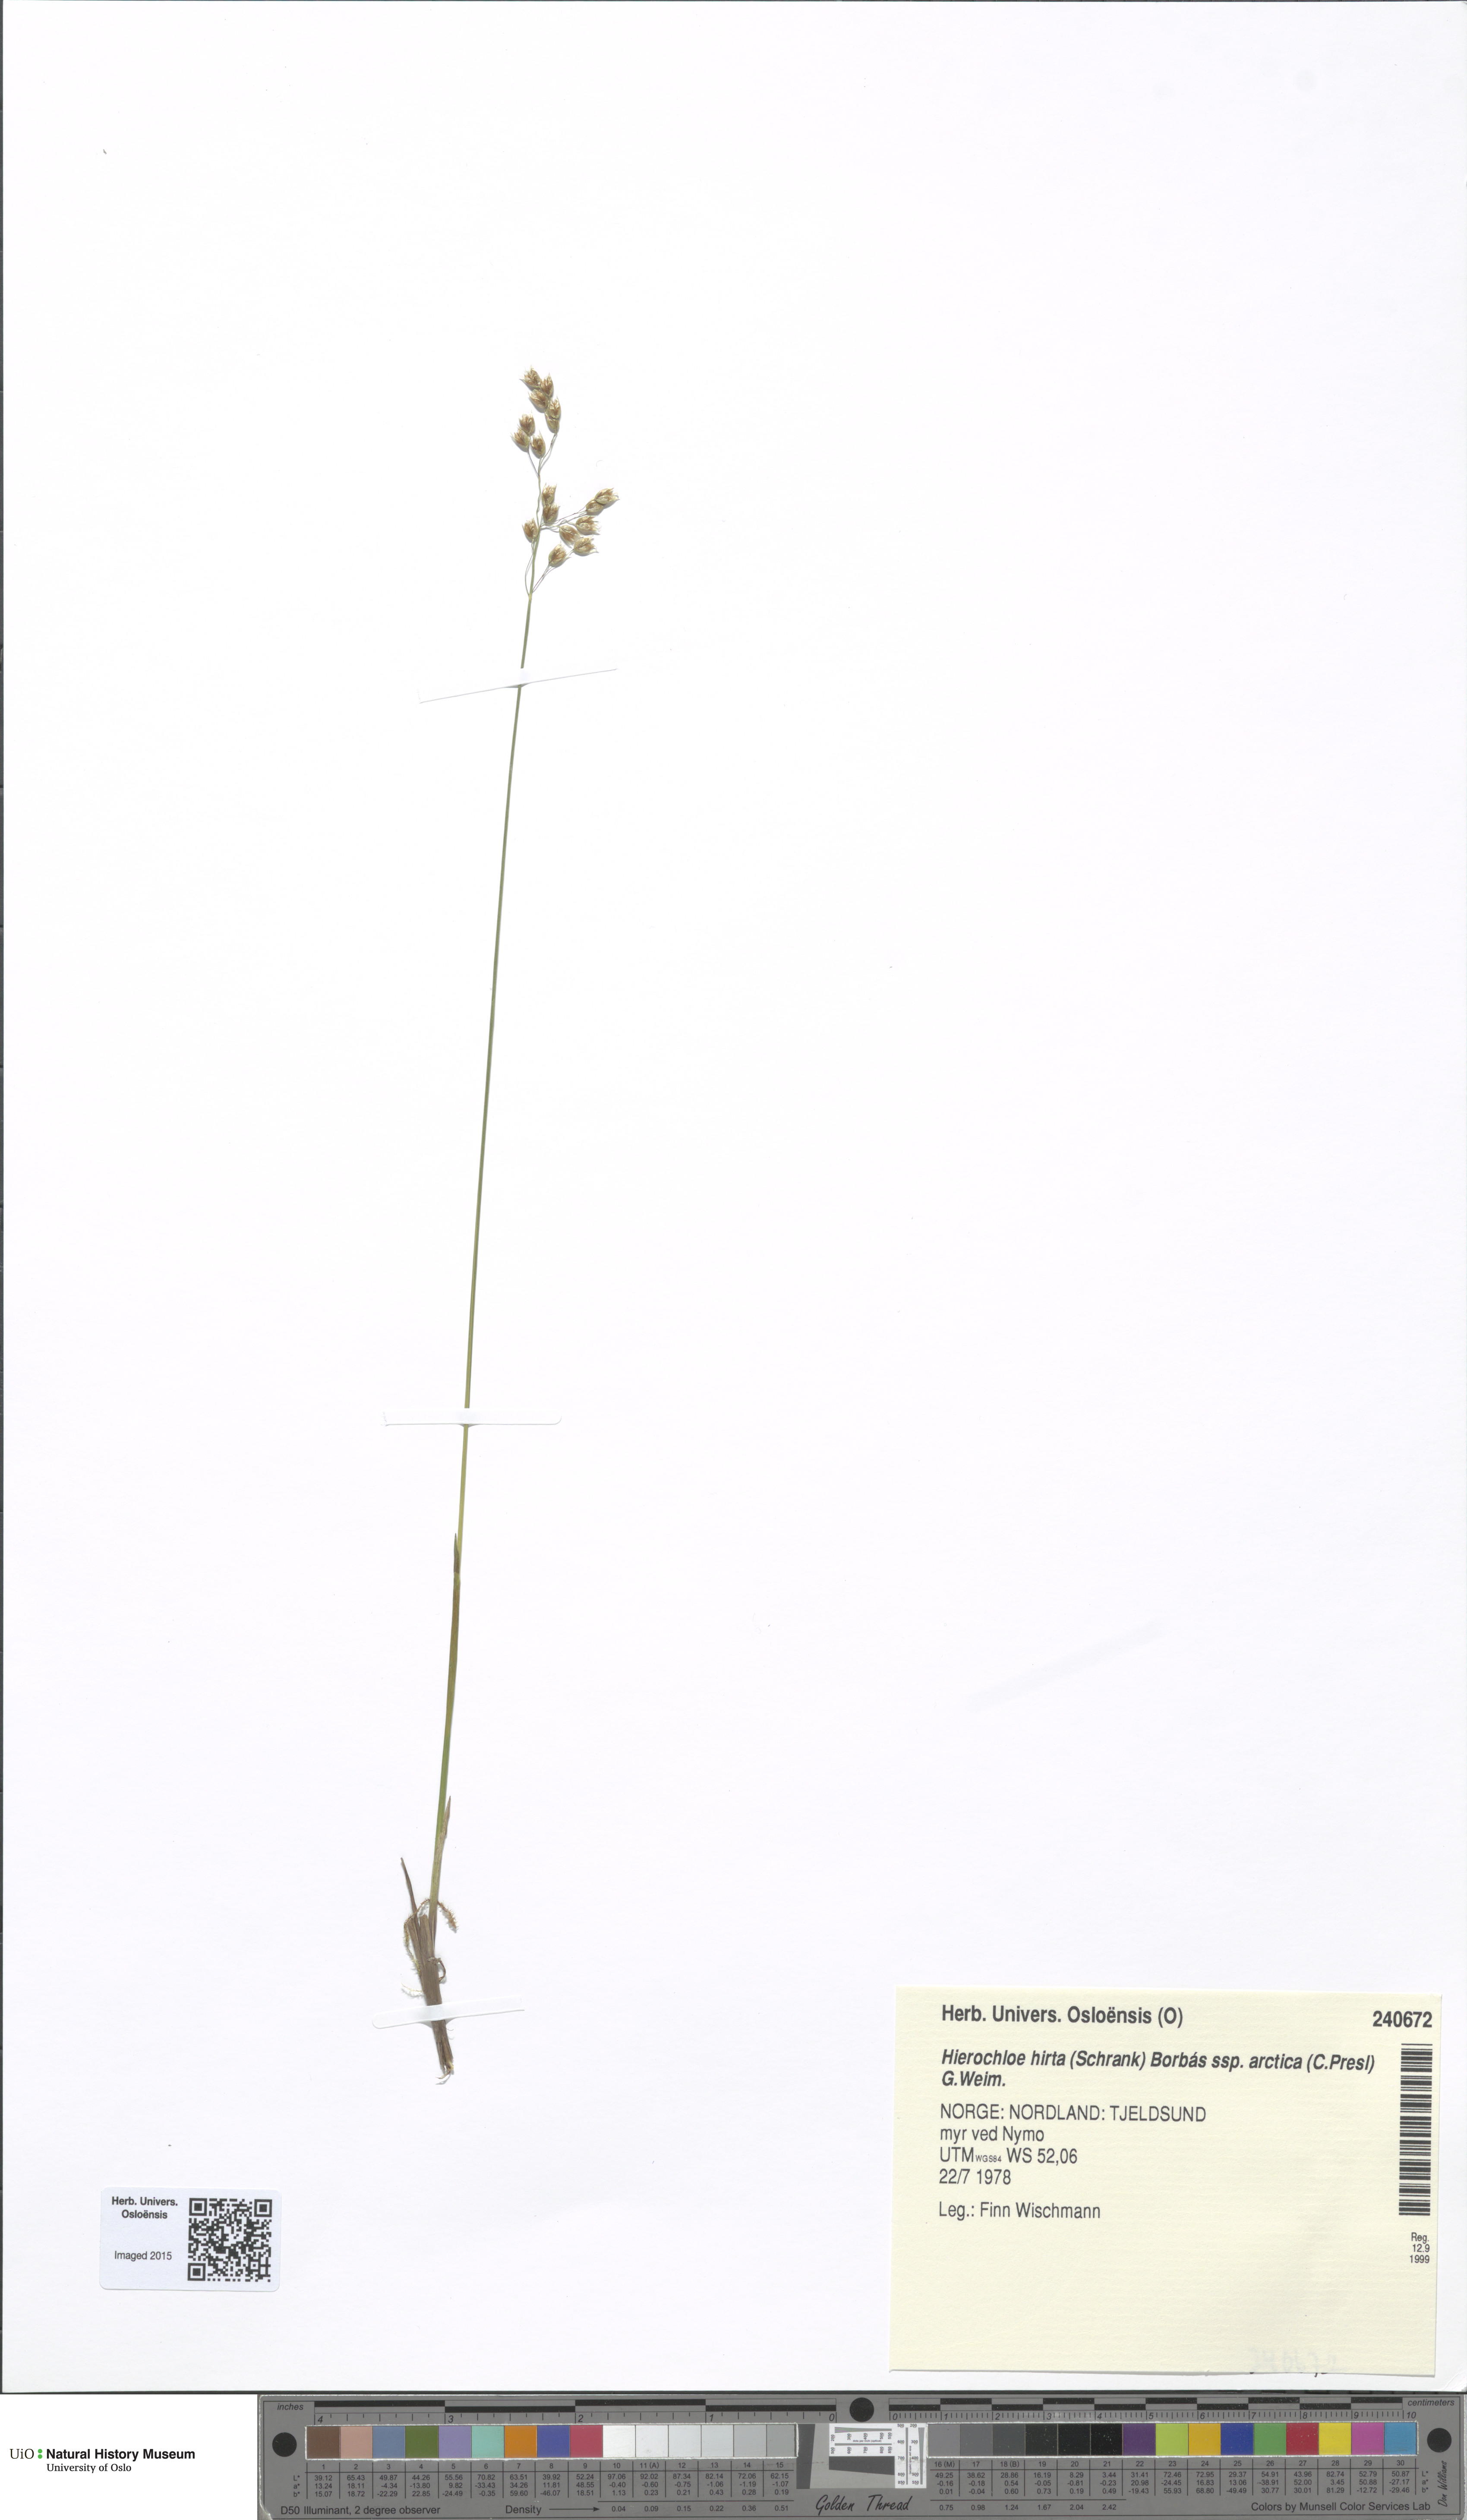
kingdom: Plantae
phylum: Tracheophyta
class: Liliopsida
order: Poales
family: Poaceae
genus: Anthoxanthum
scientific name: Anthoxanthum nitens
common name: Holy grass
